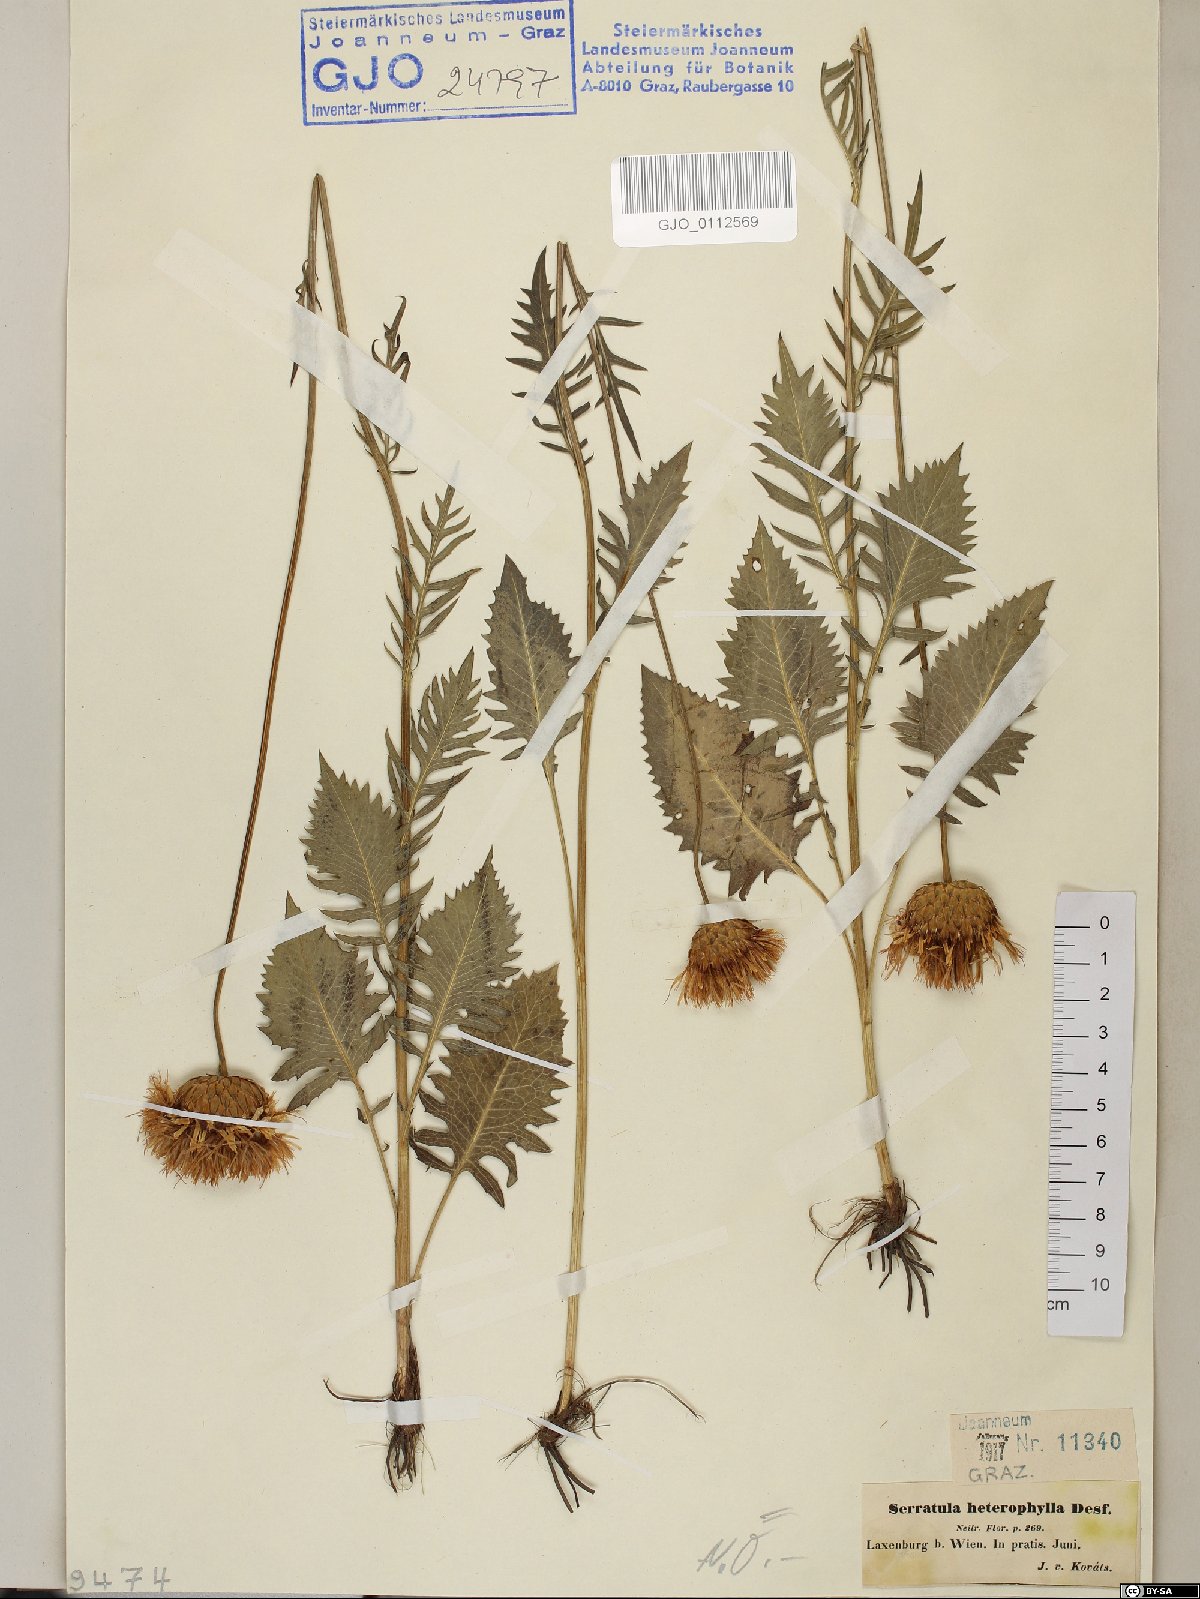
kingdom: Plantae
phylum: Tracheophyta
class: Magnoliopsida
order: Asterales
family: Asteraceae
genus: Klasea
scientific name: Klasea lycopifolia
